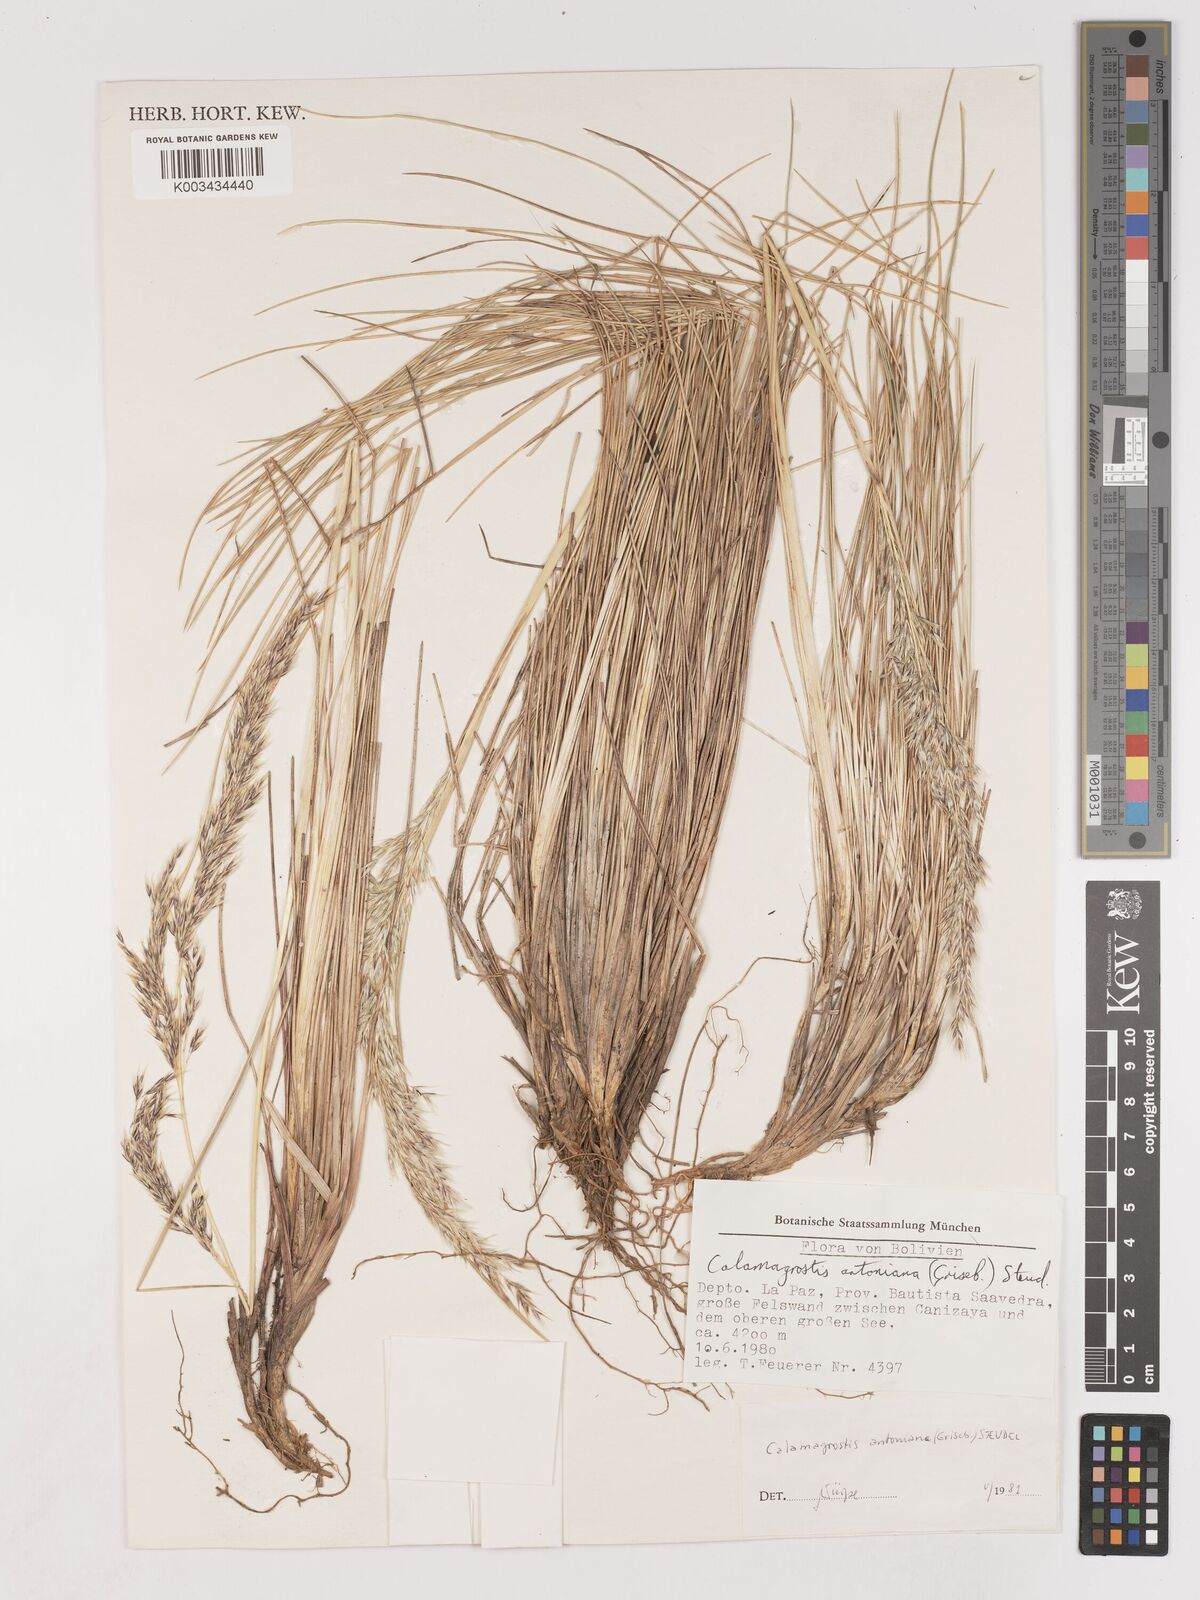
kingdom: Plantae
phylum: Tracheophyta
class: Liliopsida
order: Poales
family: Poaceae
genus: Cinnagrostis
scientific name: Cinnagrostis glacialis
